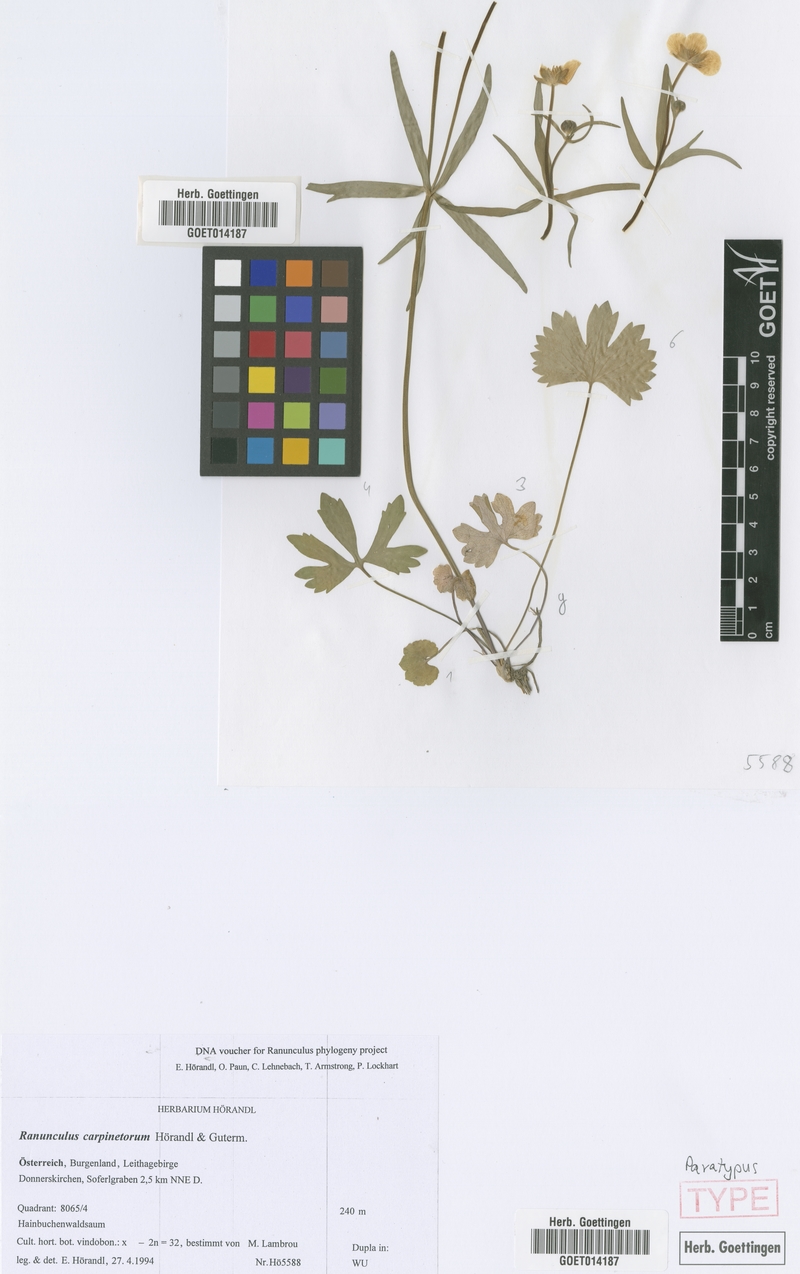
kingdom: Plantae
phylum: Tracheophyta
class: Magnoliopsida
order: Ranunculales
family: Ranunculaceae
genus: Ranunculus
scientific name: Ranunculus carpinetorum
